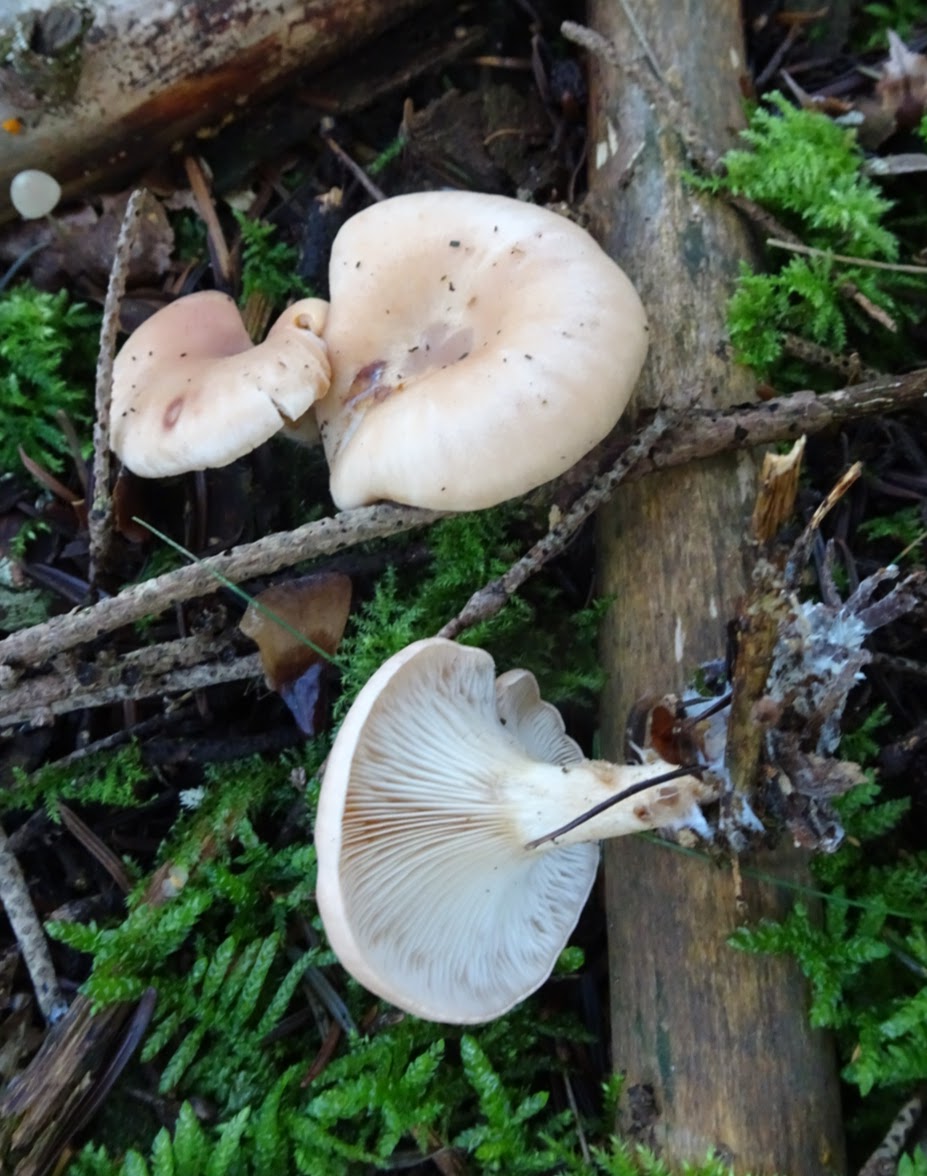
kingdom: Fungi
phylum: Basidiomycota
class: Agaricomycetes
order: Agaricales
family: Tricholomataceae
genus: Paralepista
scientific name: Paralepista flaccida
